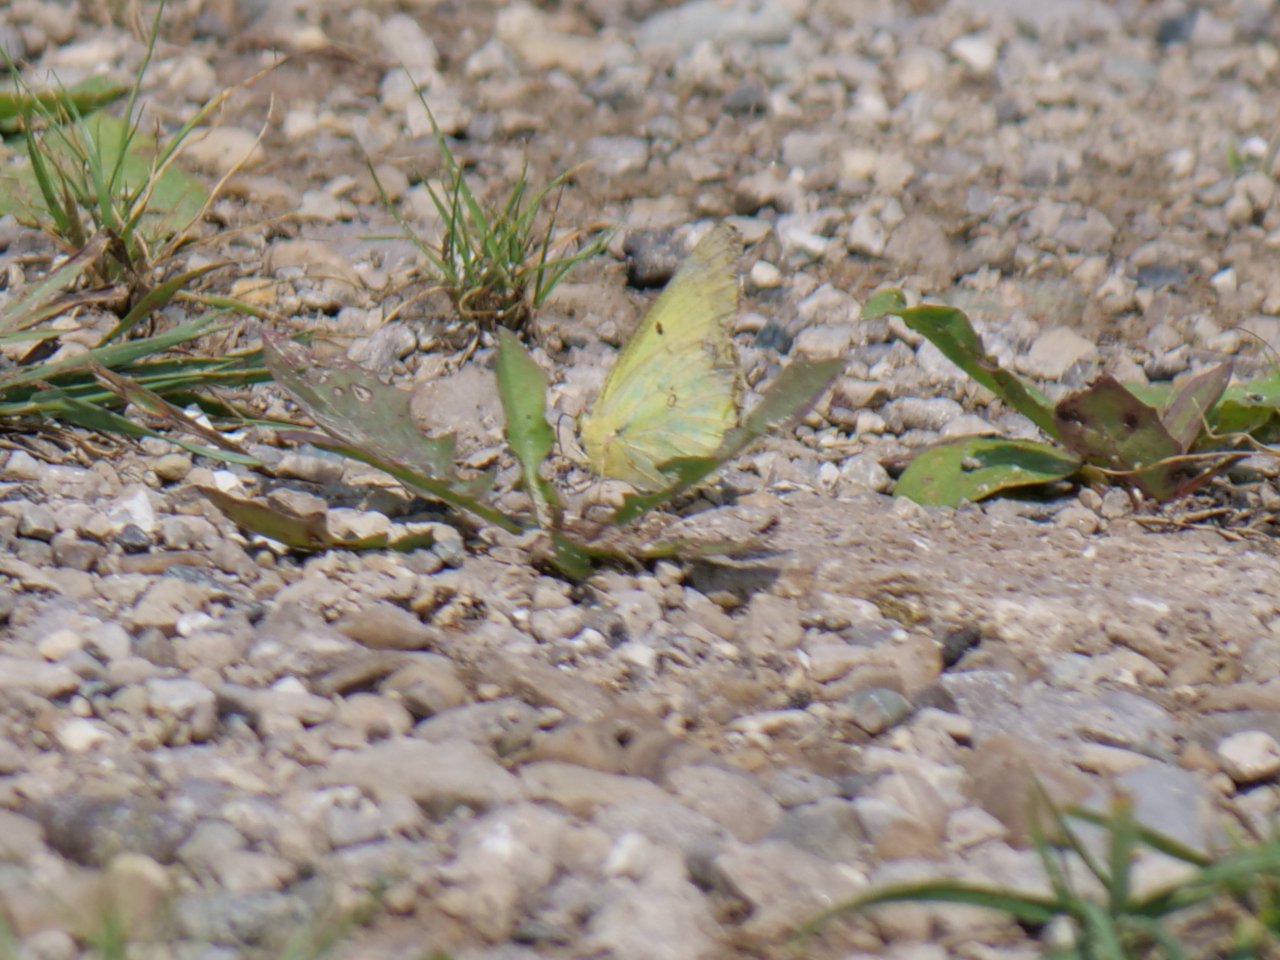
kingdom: Animalia
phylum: Arthropoda
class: Insecta
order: Lepidoptera
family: Pieridae
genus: Colias
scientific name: Colias philodice
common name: Clouded Sulphur
